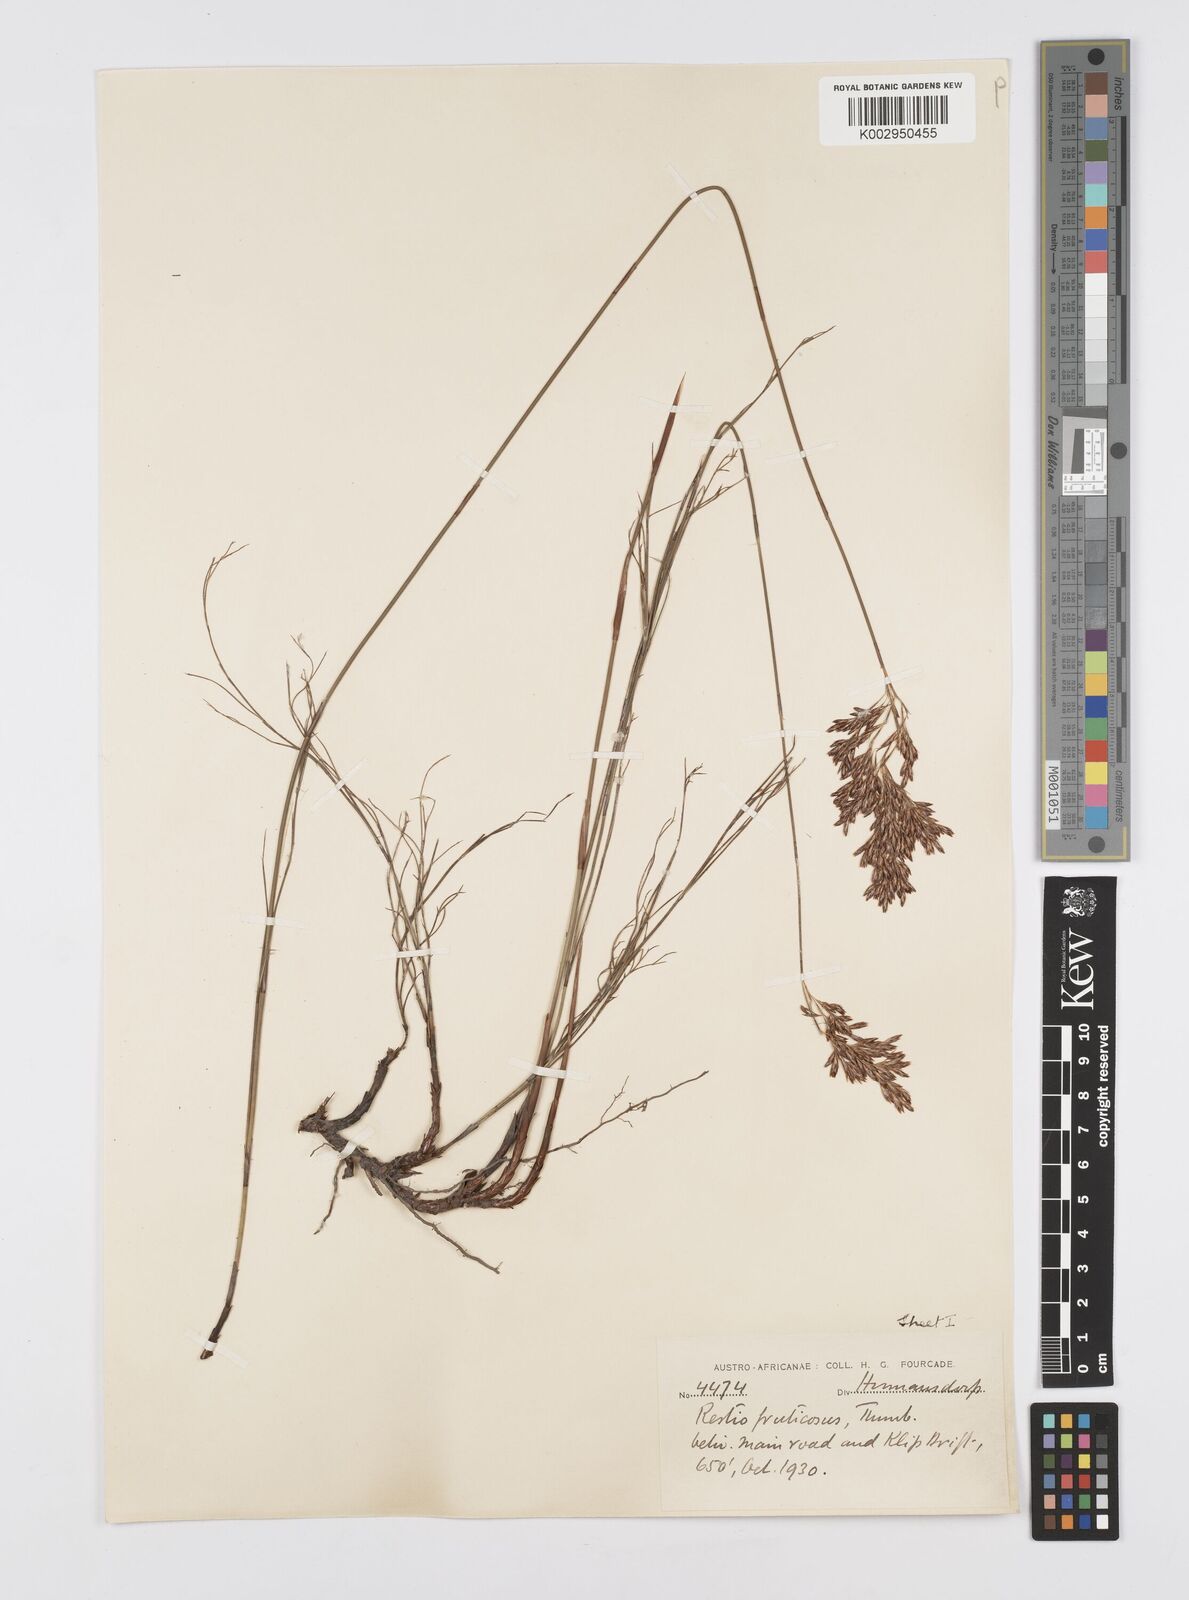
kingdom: Plantae
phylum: Tracheophyta
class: Liliopsida
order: Poales
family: Restionaceae
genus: Rhodocoma
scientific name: Rhodocoma fruticosa
